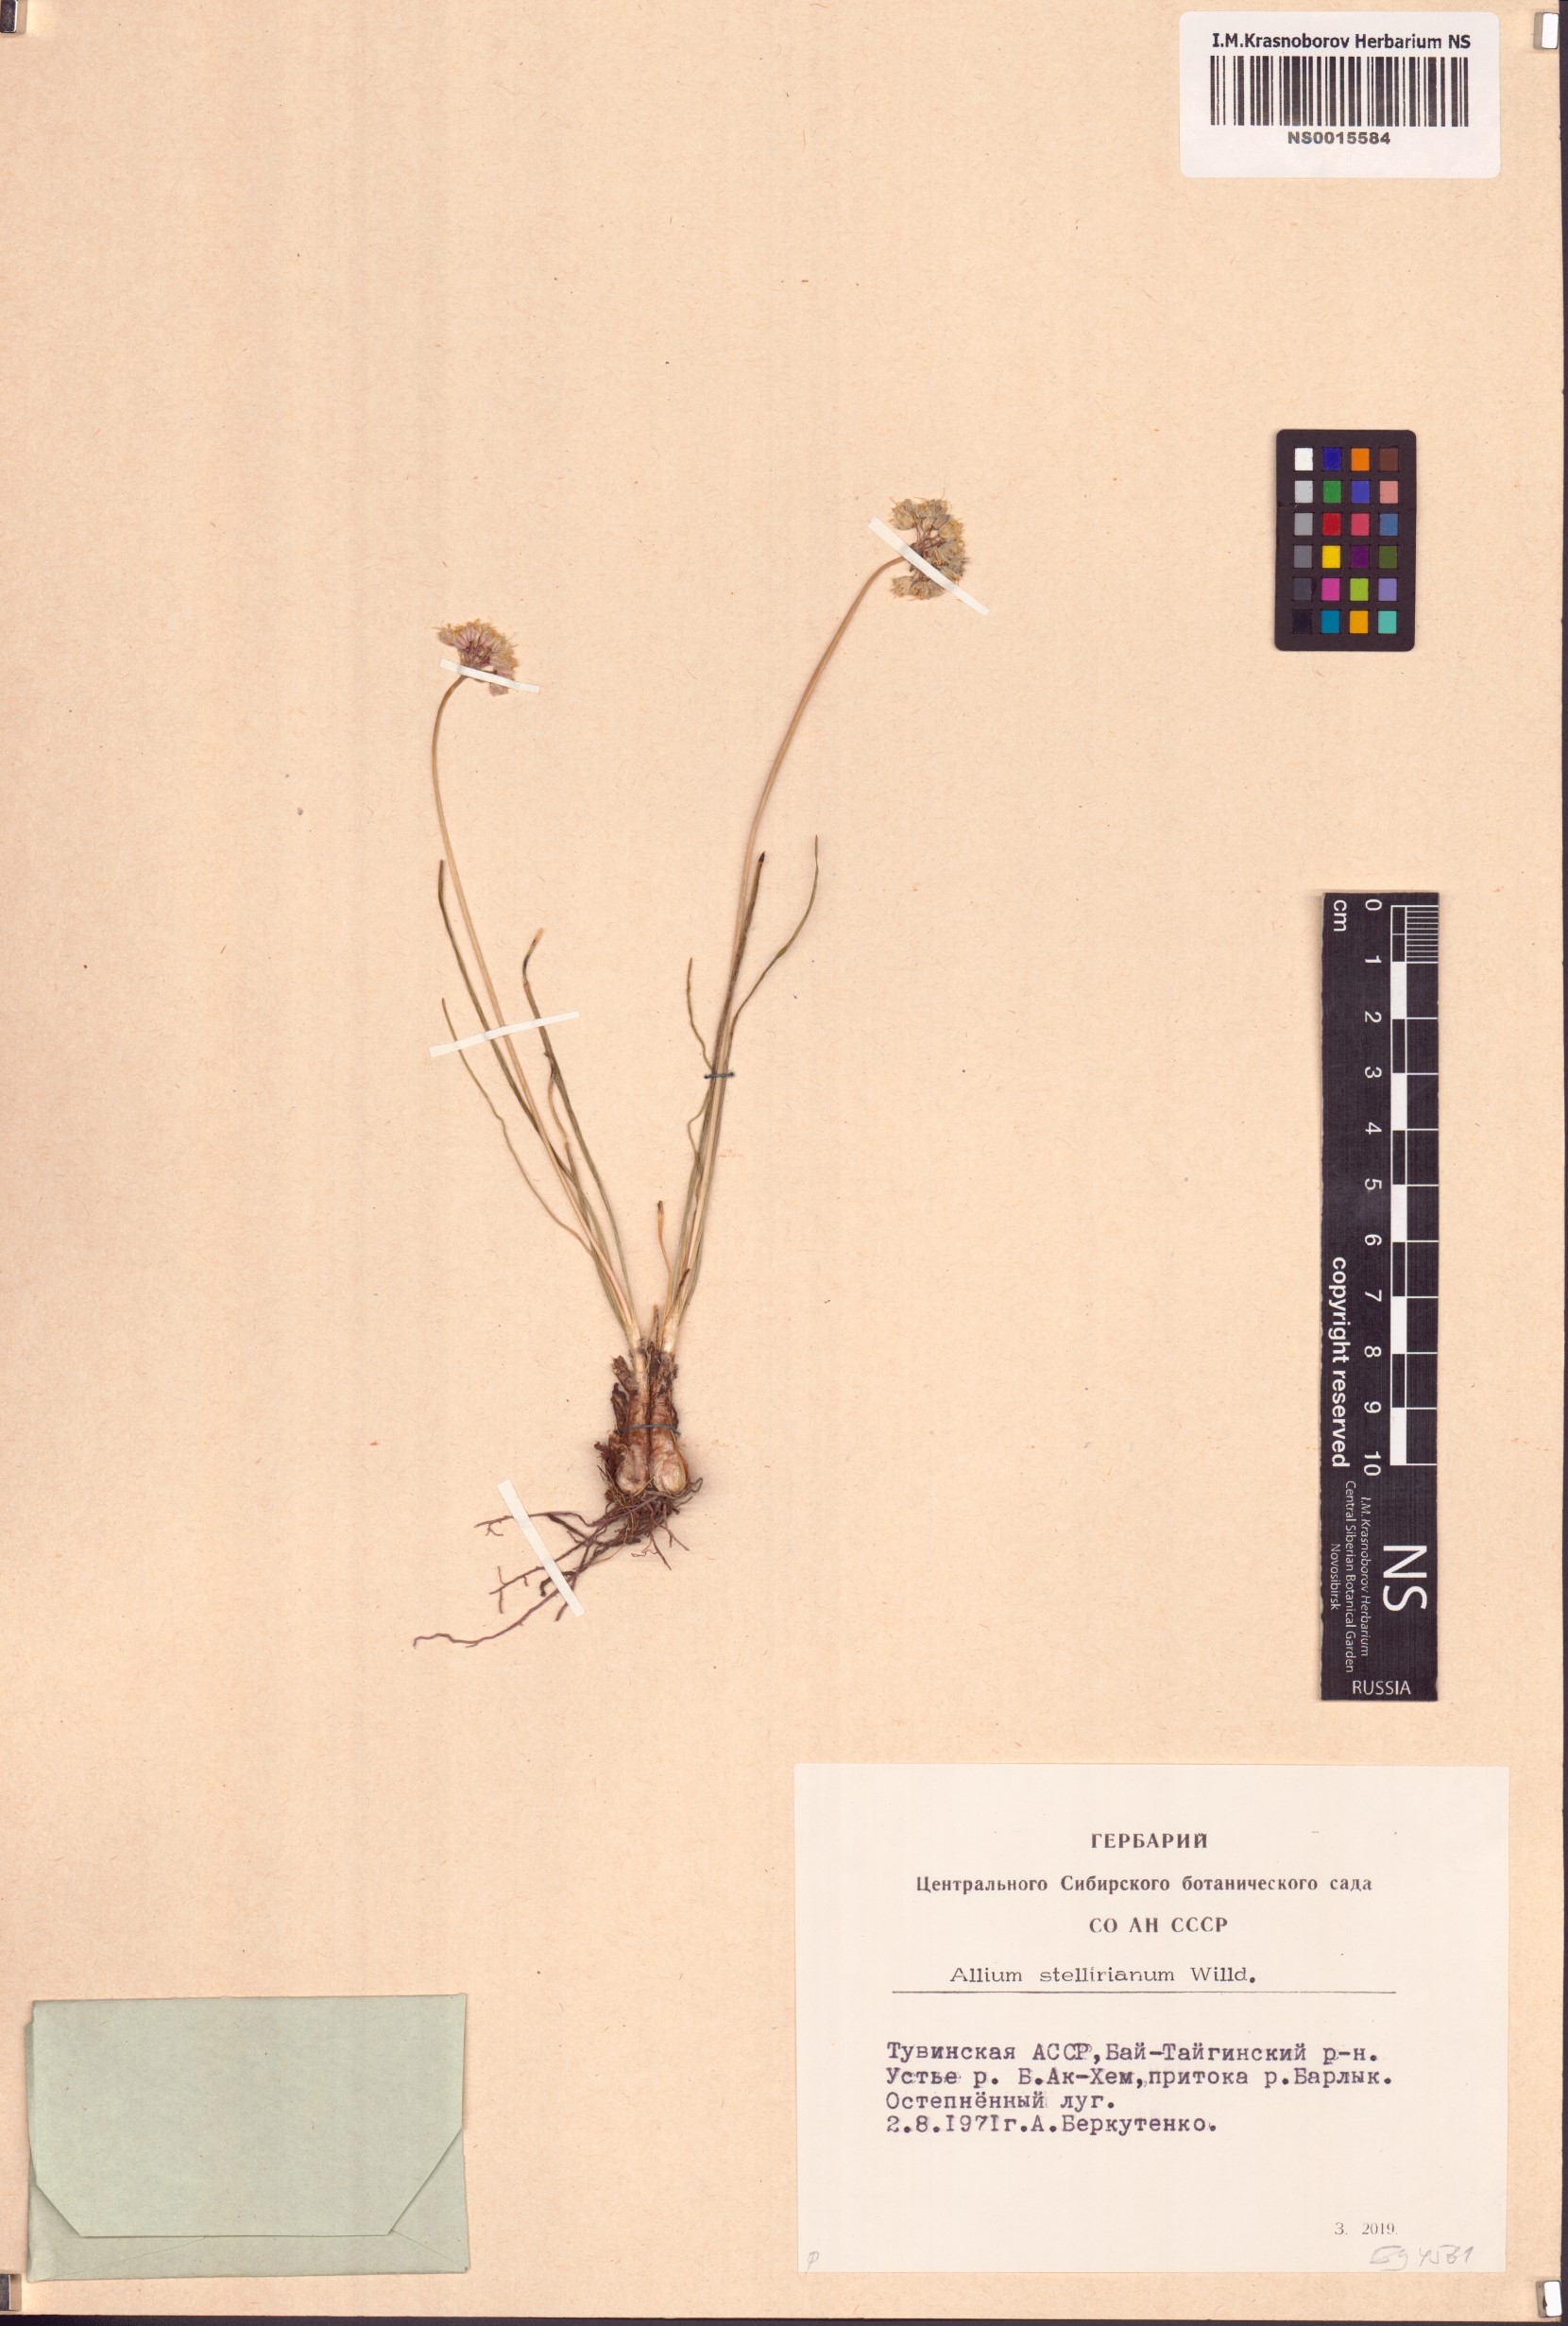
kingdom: Plantae
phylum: Tracheophyta
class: Liliopsida
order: Asparagales
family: Amaryllidaceae
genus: Allium
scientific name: Allium stellerianum
